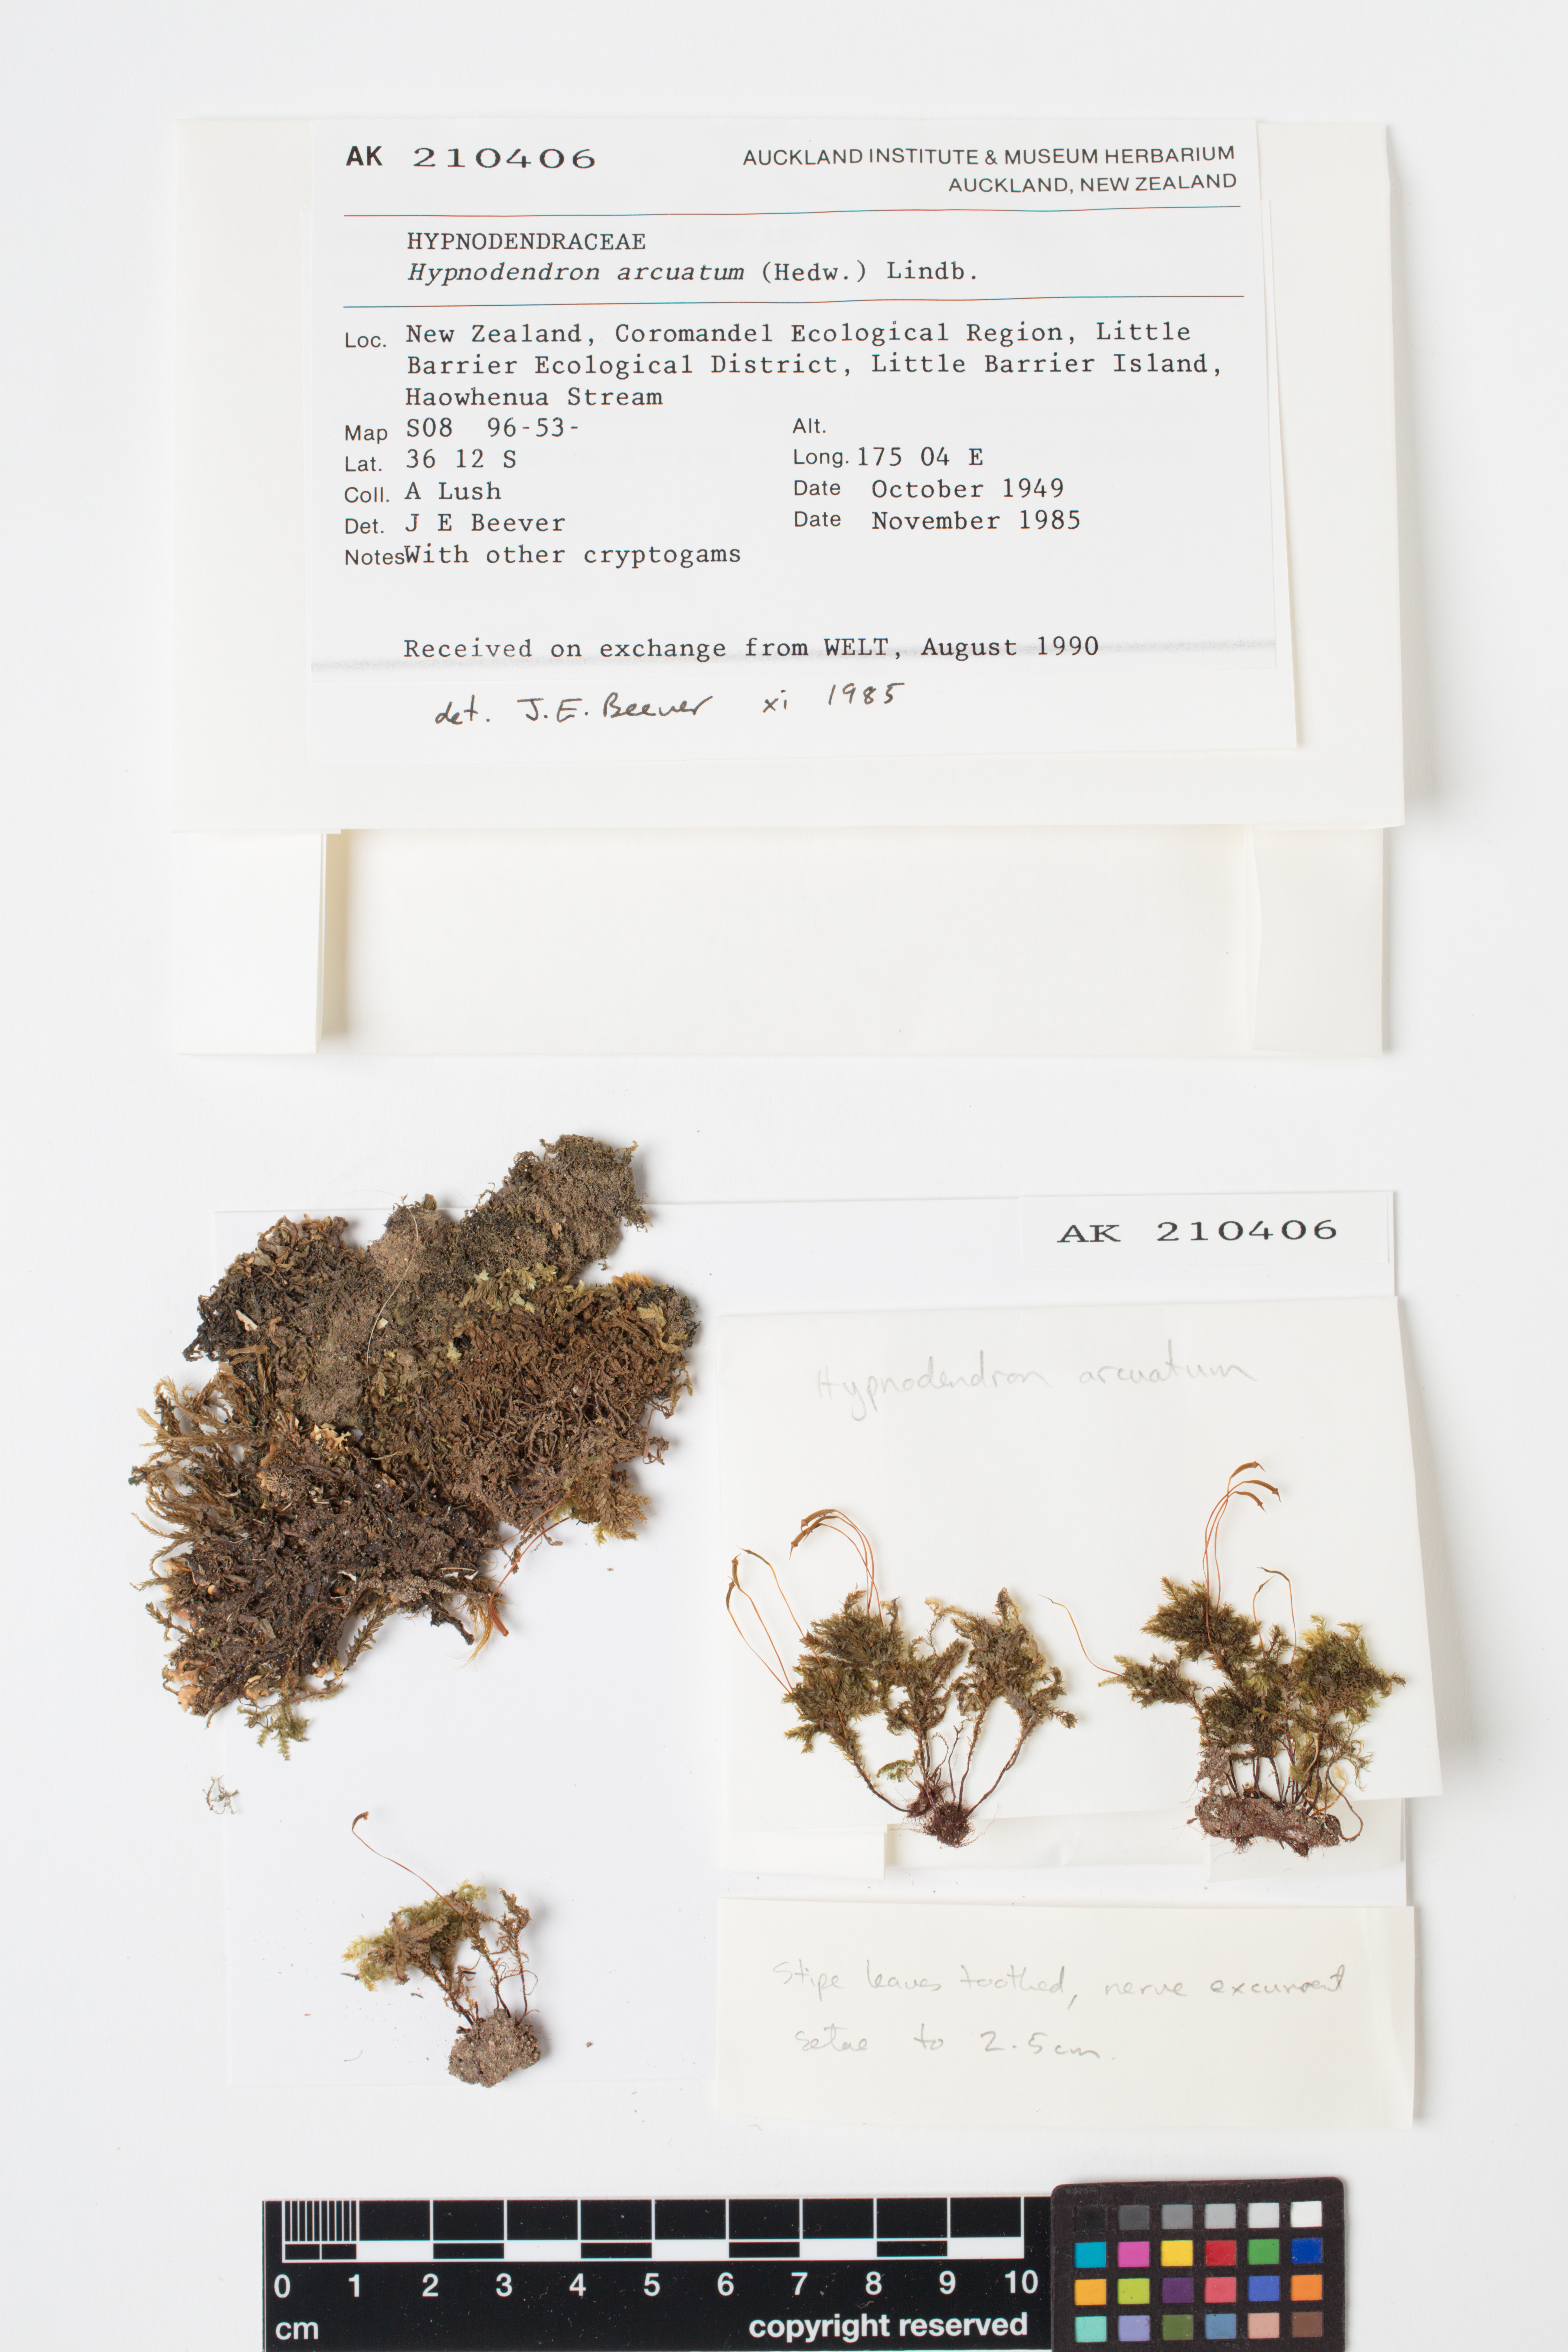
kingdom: Plantae
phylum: Bryophyta
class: Bryopsida
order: Hypnodendrales
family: Spiridentaceae
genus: Hypnodendron
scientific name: Hypnodendron arcuatum
